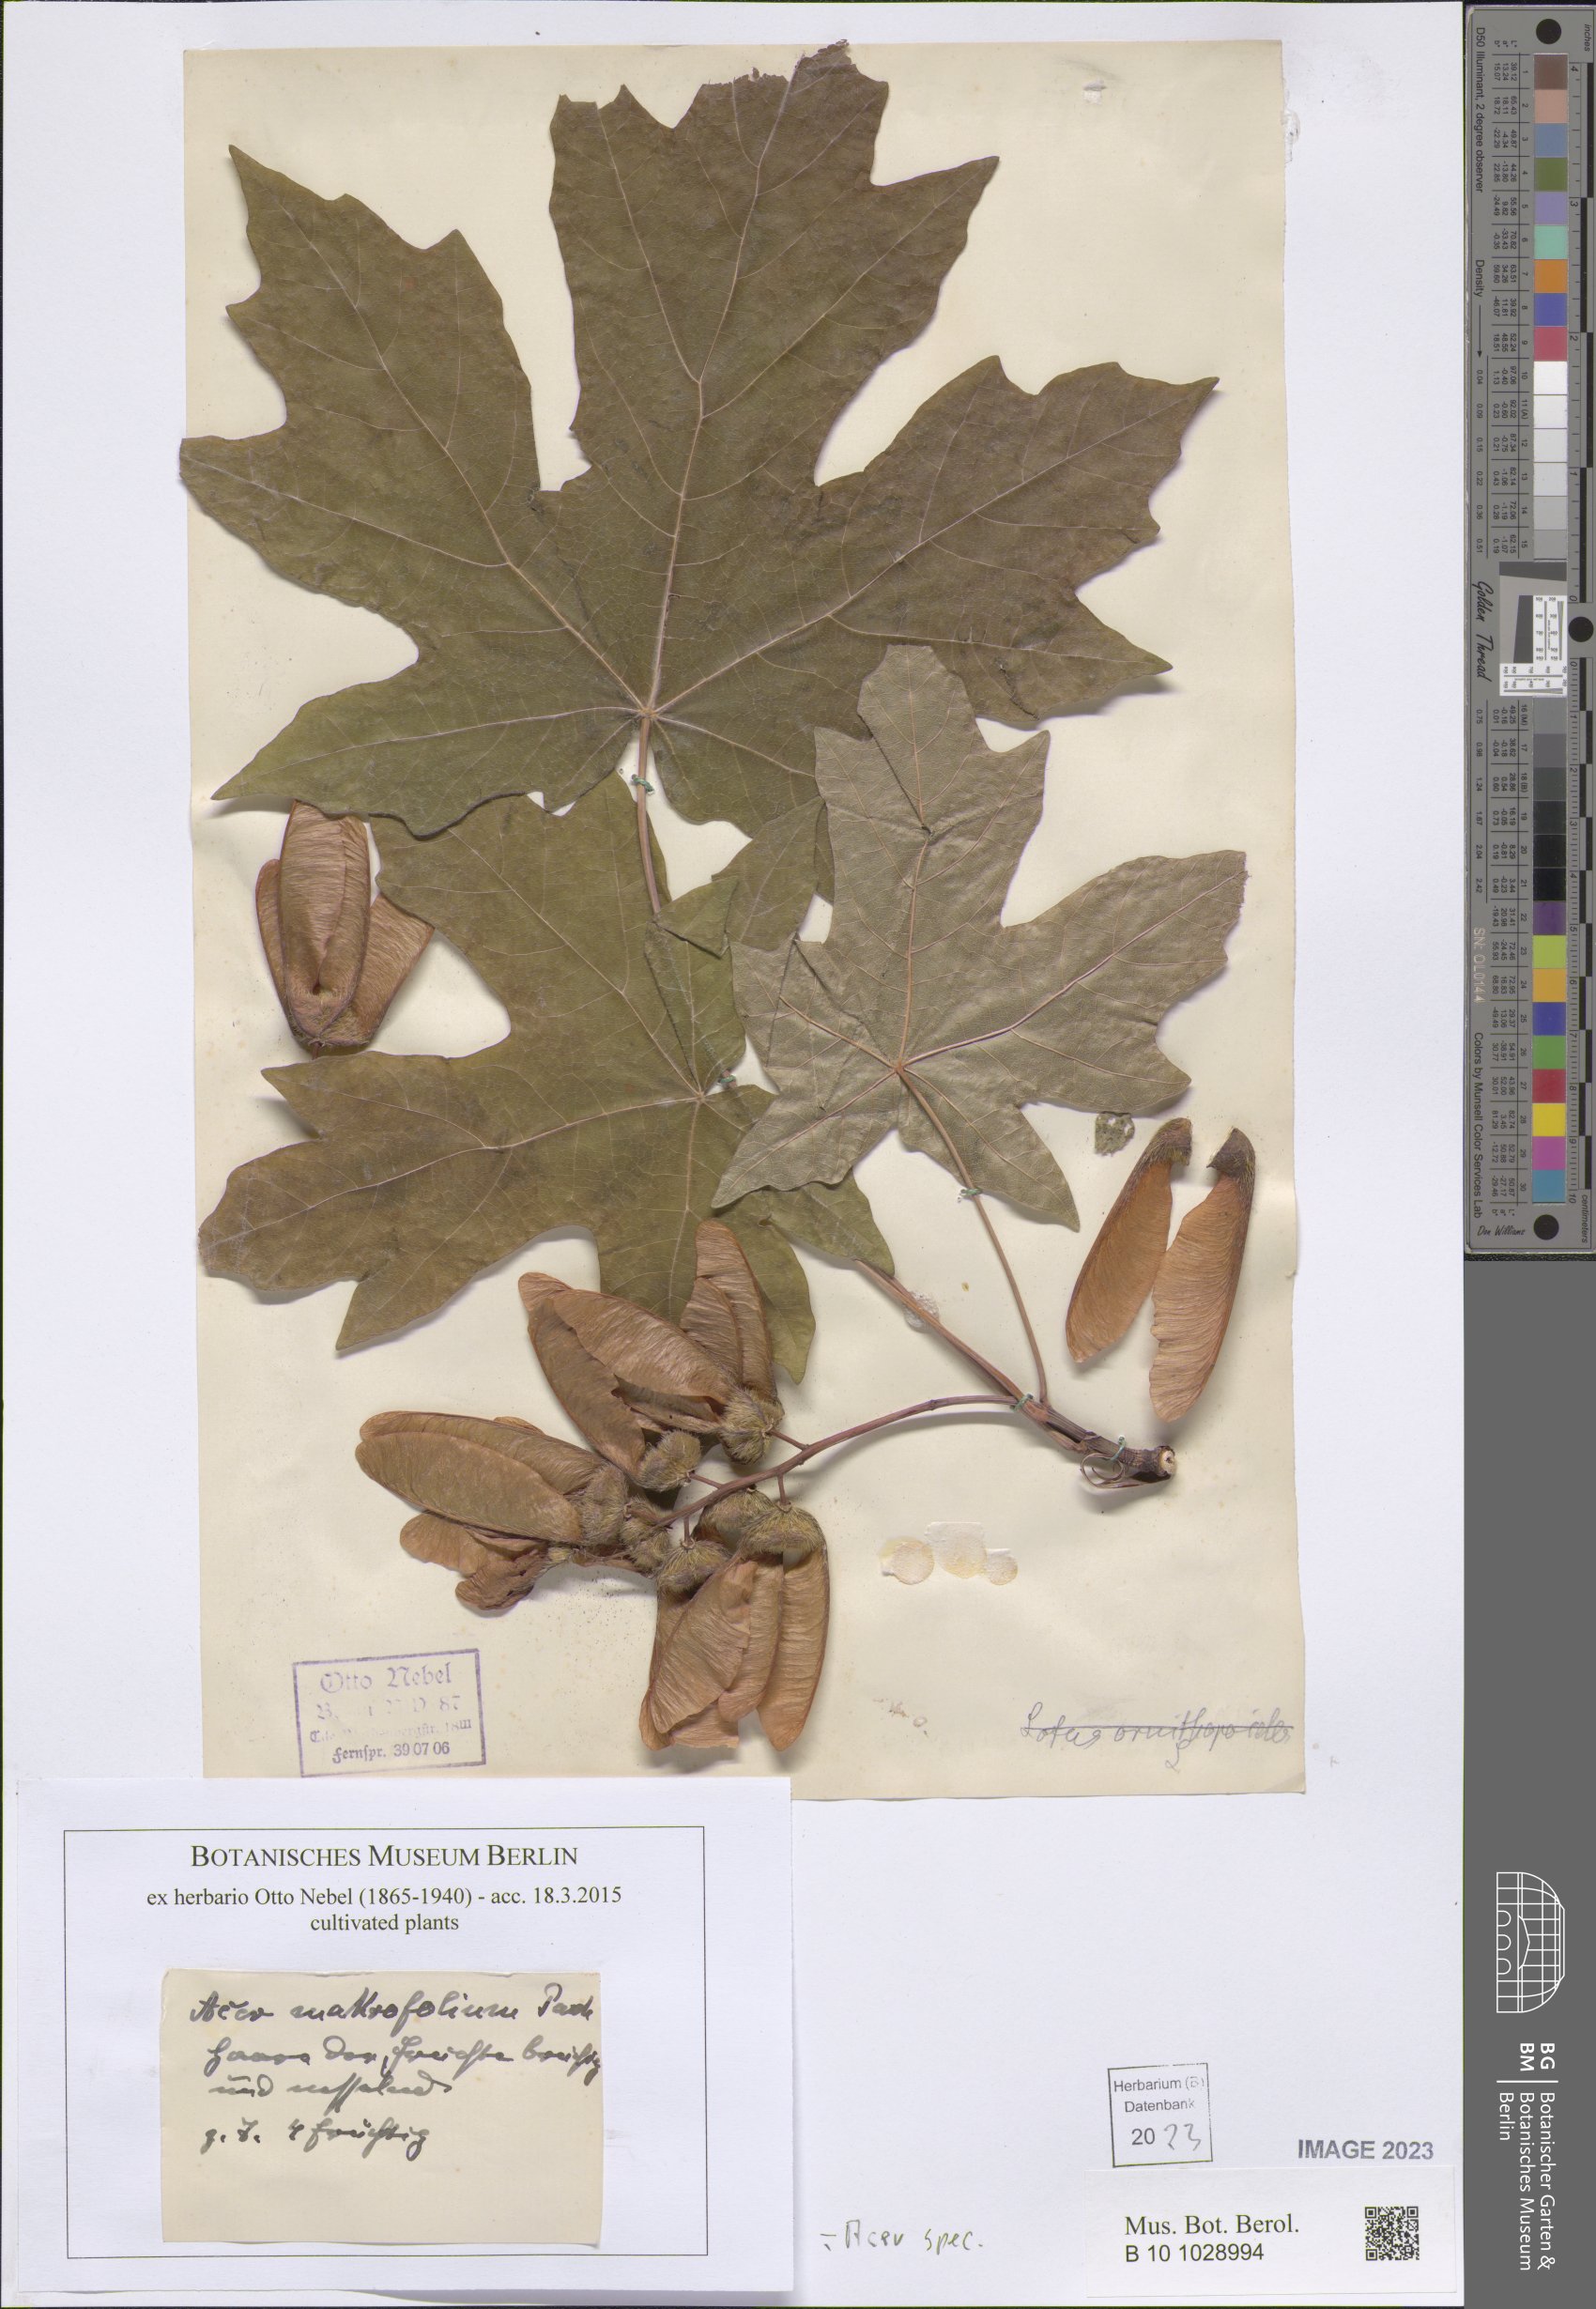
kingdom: Plantae
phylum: Tracheophyta
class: Magnoliopsida
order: Sapindales
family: Sapindaceae
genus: Acer
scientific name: Acer
